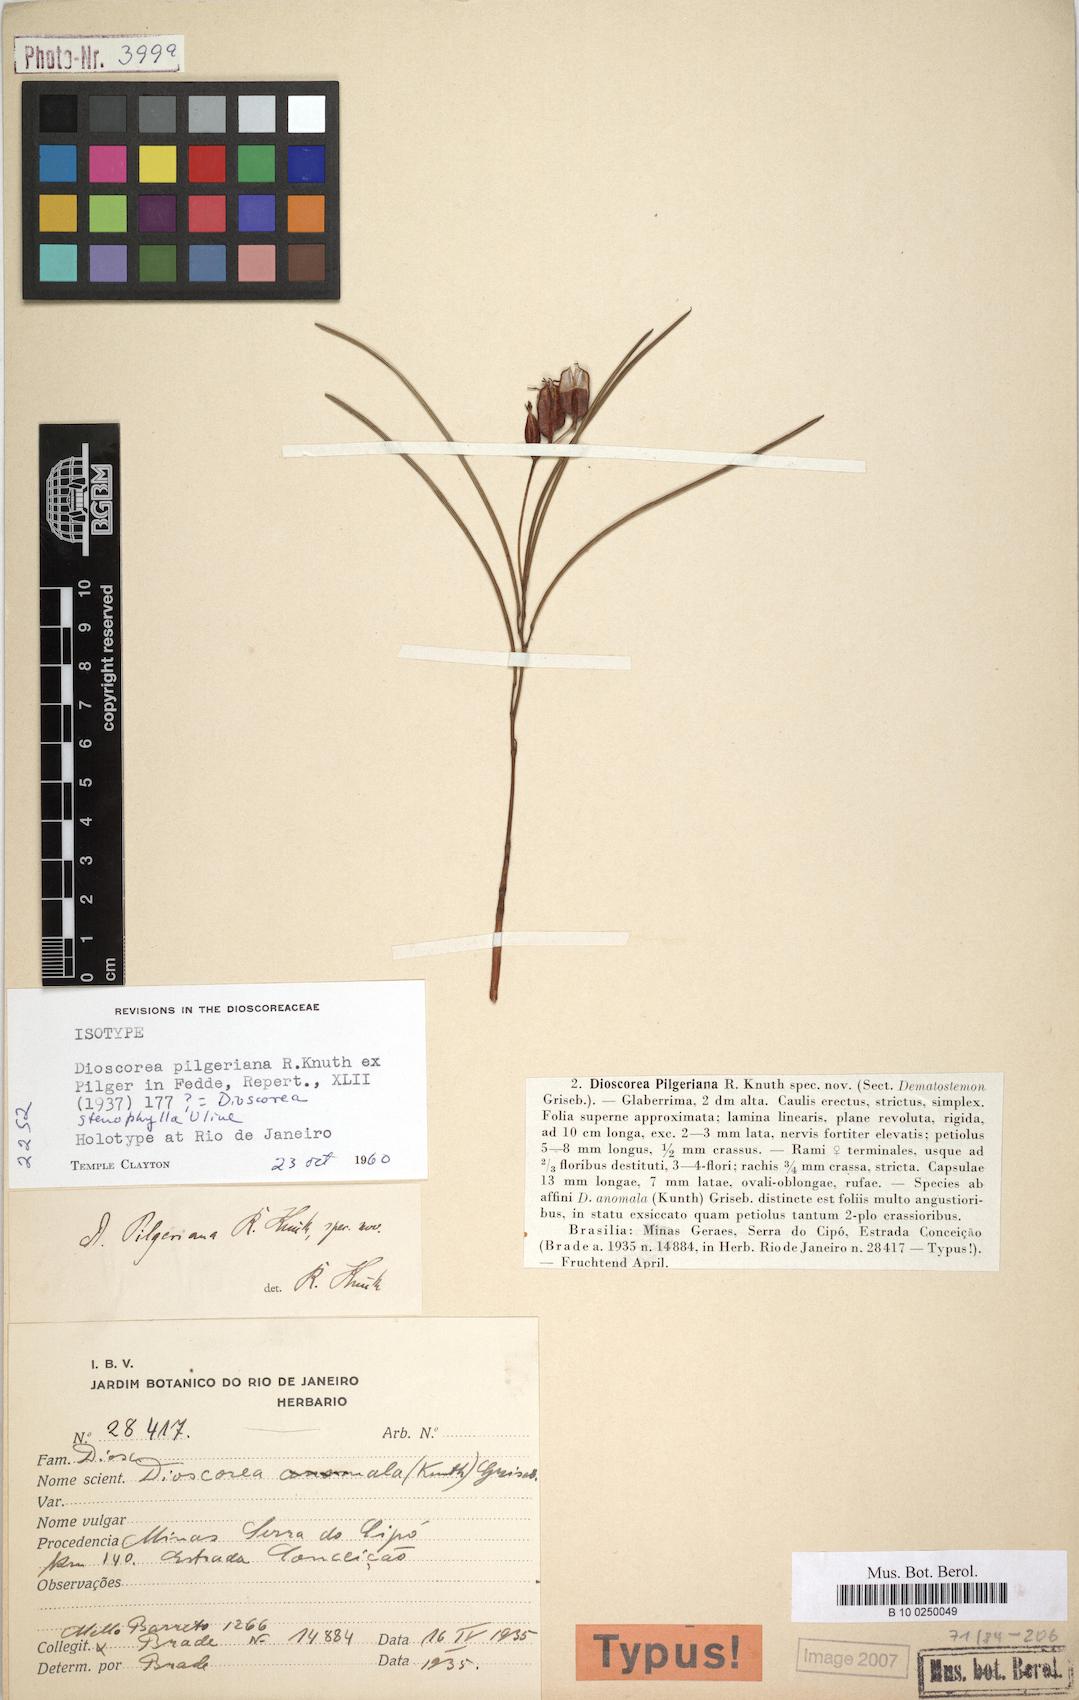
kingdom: Plantae
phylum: Tracheophyta
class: Liliopsida
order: Dioscoreales
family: Dioscoreaceae
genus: Dioscorea
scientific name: Dioscorea pilgeriana
